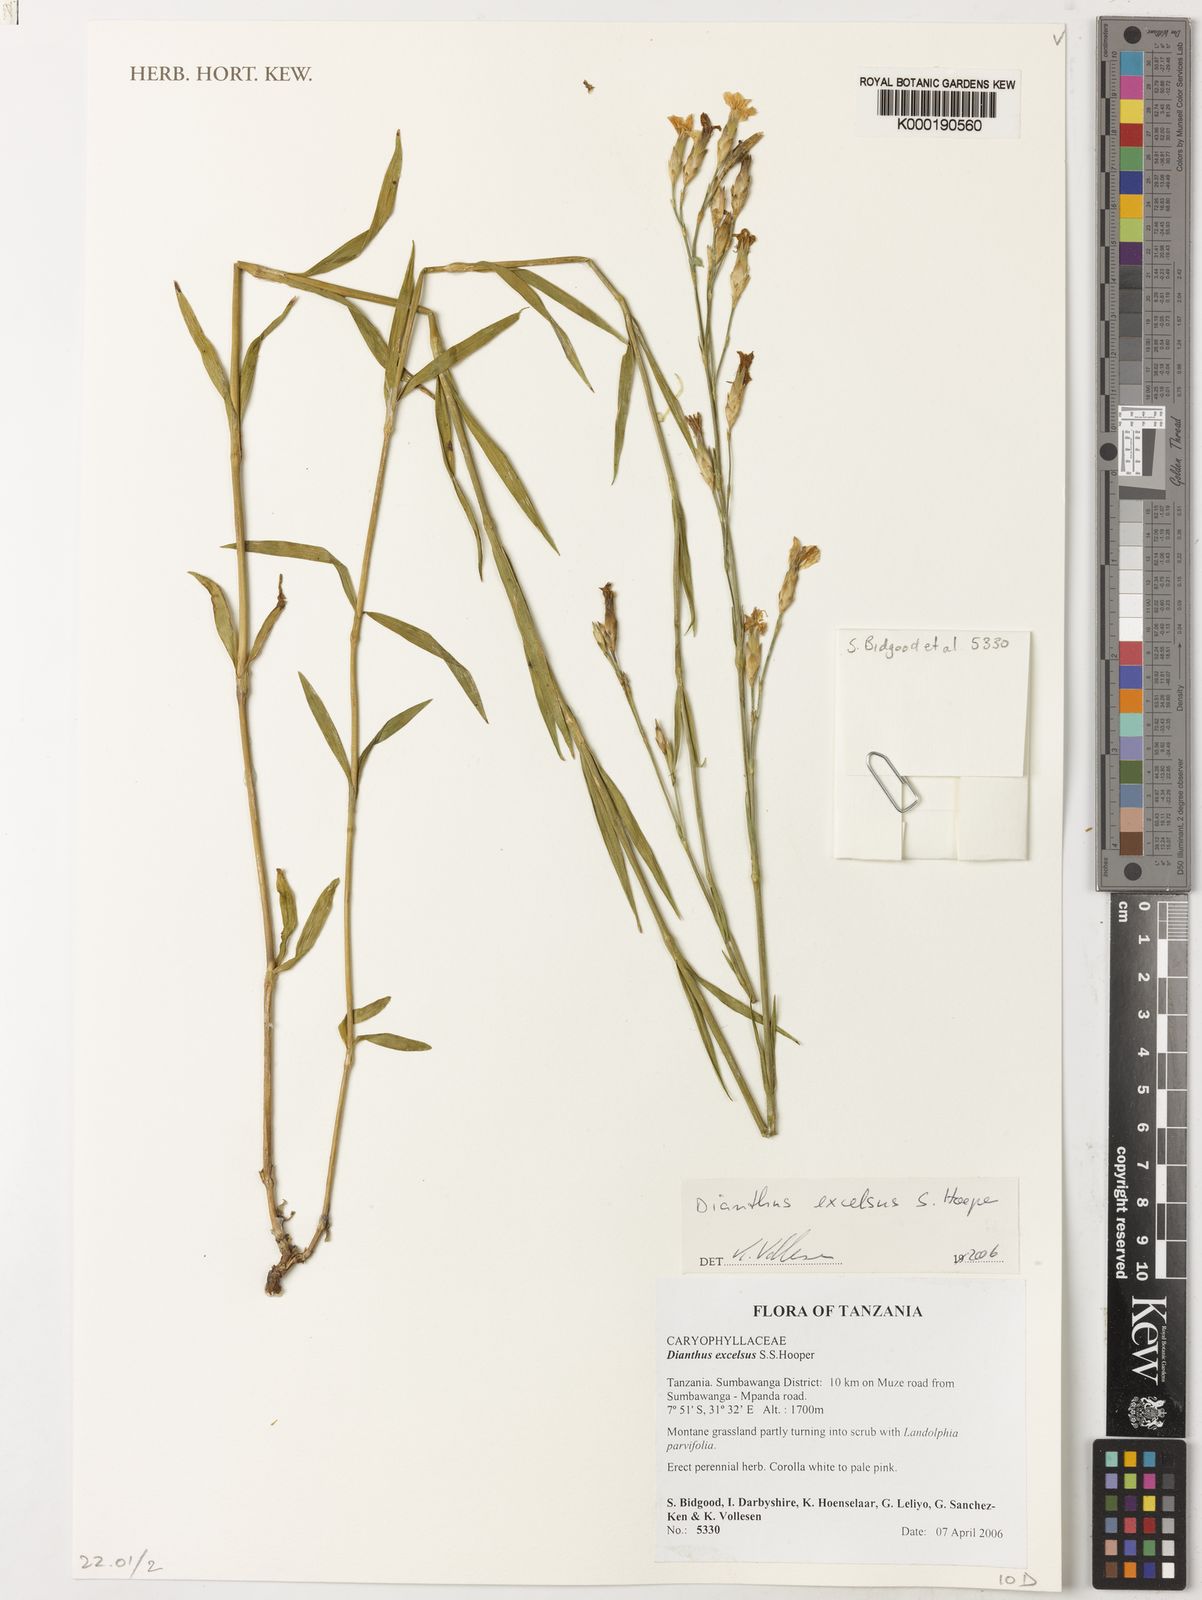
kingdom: Plantae
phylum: Tracheophyta
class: Magnoliopsida
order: Caryophyllales
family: Caryophyllaceae
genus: Dianthus
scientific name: Dianthus excelsus
